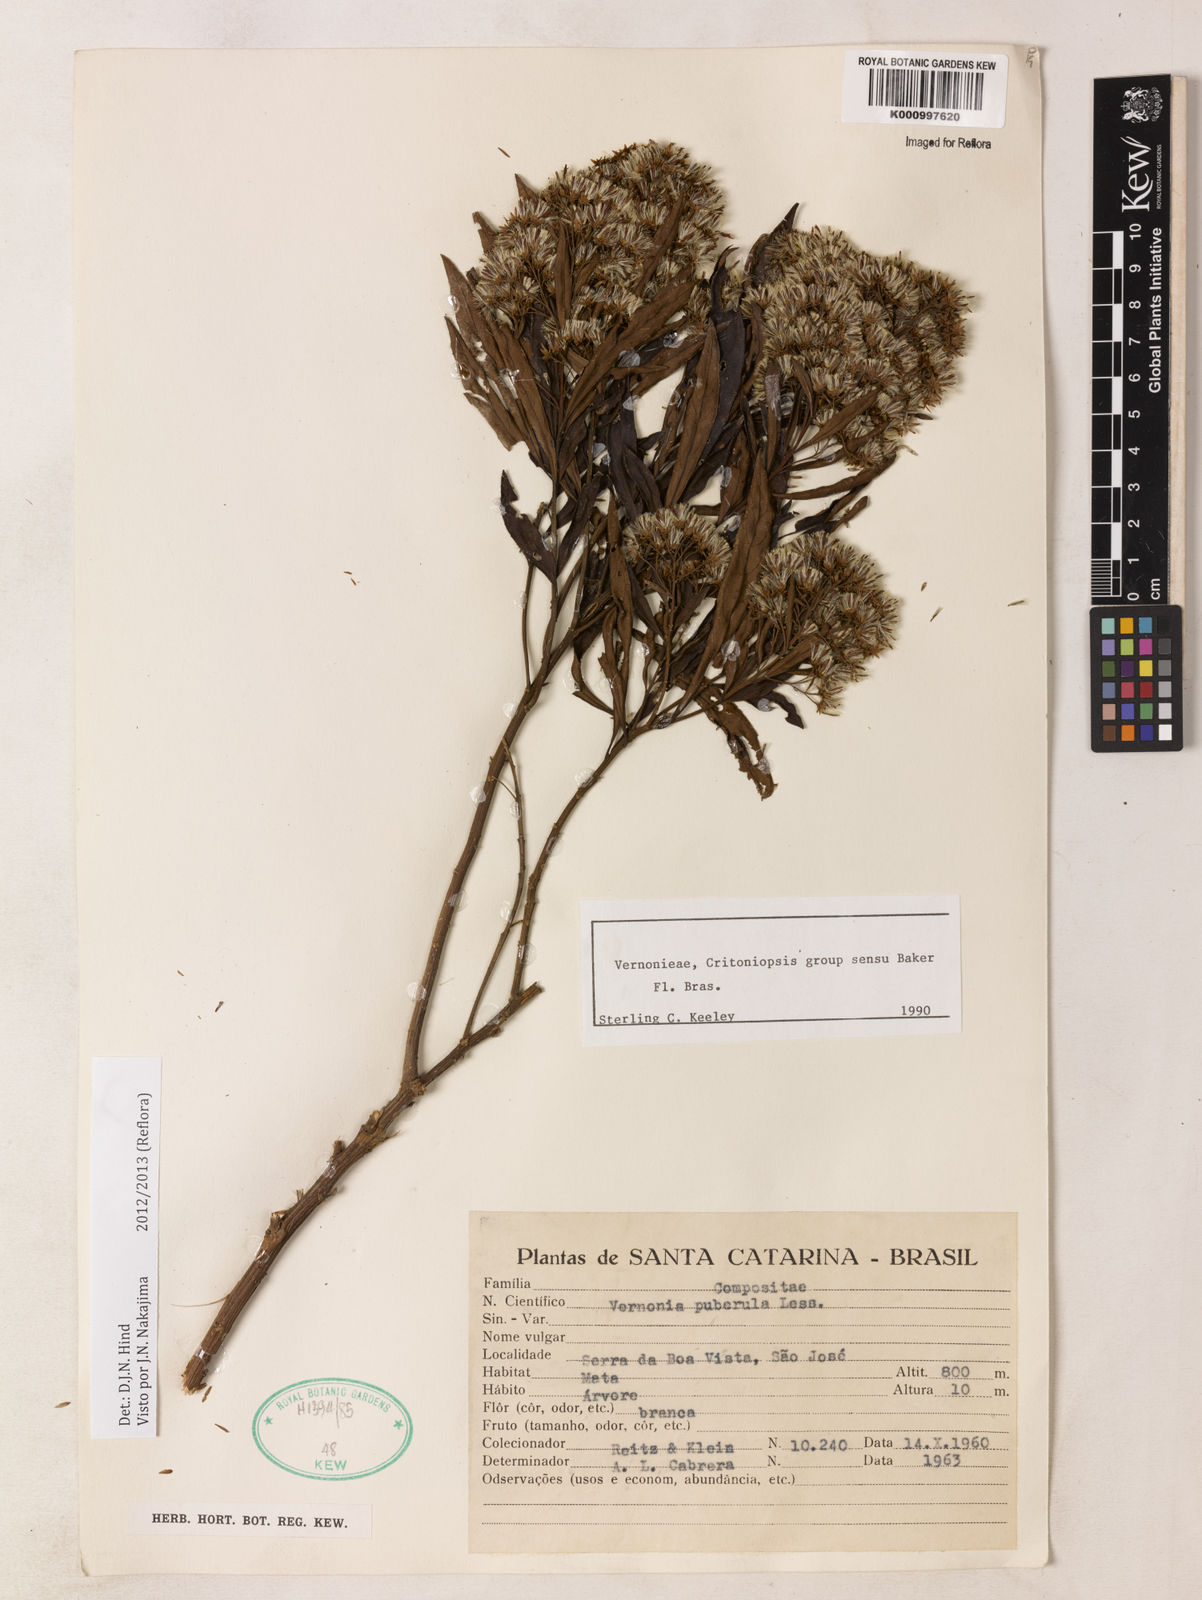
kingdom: Plantae
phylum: Tracheophyta
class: Magnoliopsida
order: Asterales
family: Asteraceae
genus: Vernonanthura
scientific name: Vernonanthura puberula
